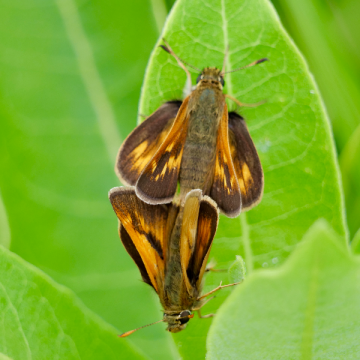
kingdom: Animalia
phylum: Arthropoda
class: Insecta
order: Lepidoptera
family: Hesperiidae
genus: Polites
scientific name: Polites
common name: Long Dash Skipper
